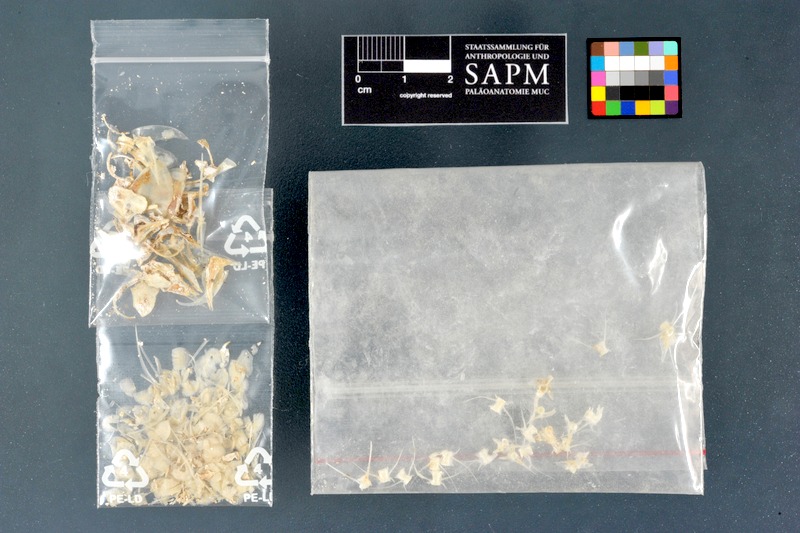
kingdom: Animalia
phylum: Chordata
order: Mugiliformes
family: Mugilidae
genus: Mugil
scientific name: Mugil cephalus
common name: Grey mullet
